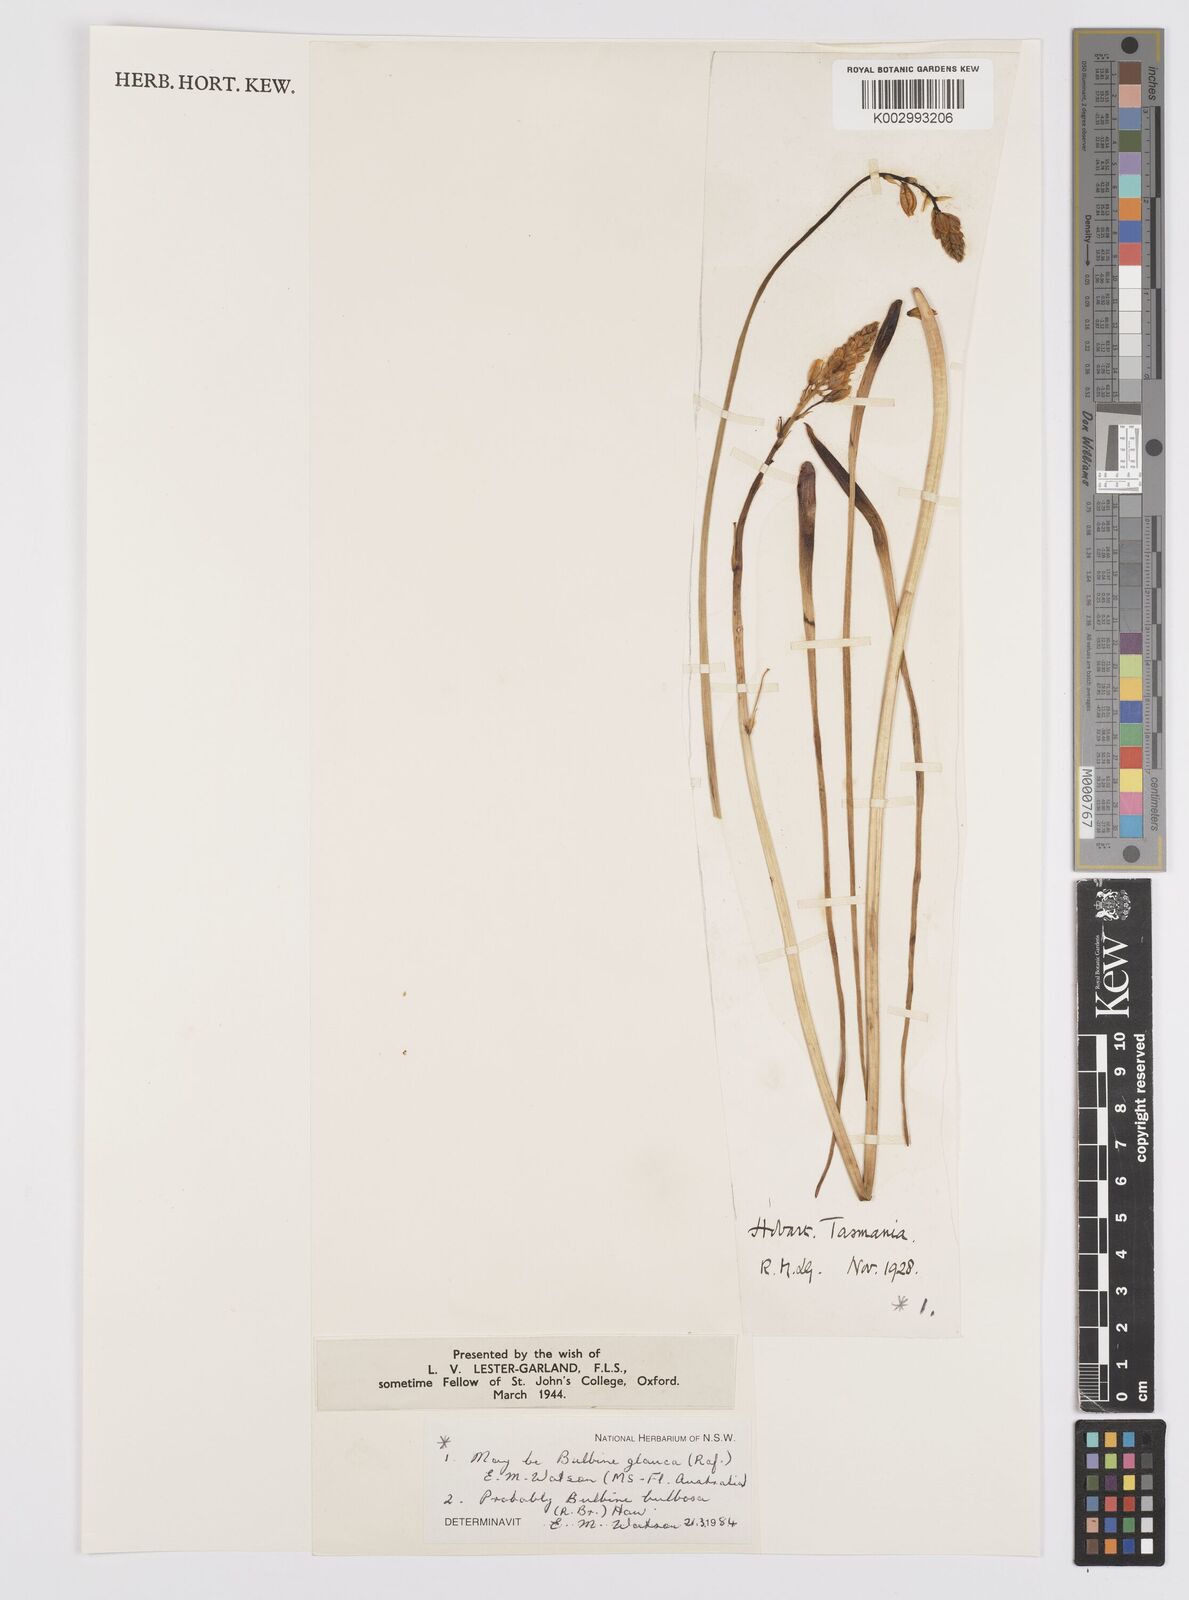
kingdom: Plantae
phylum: Tracheophyta
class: Liliopsida
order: Asparagales
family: Asphodelaceae
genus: Bulbine
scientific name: Bulbine glauca
